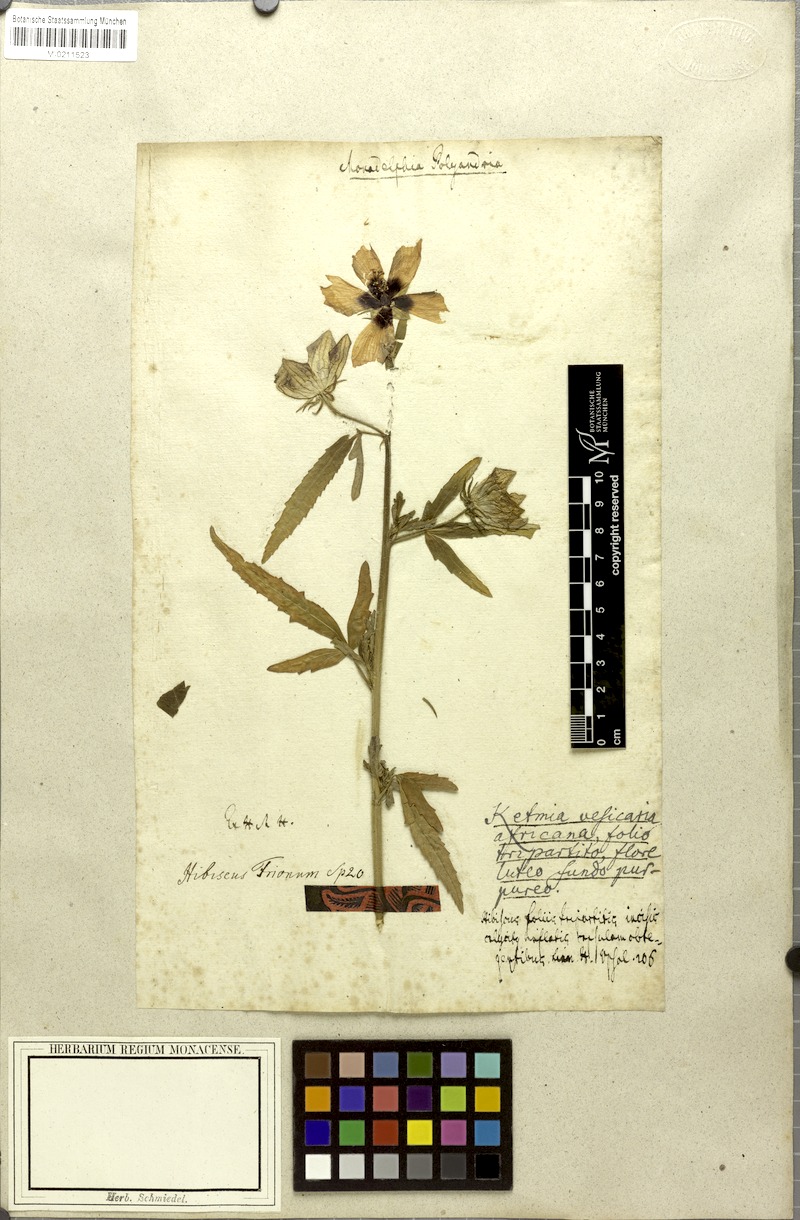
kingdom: Plantae
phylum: Tracheophyta
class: Magnoliopsida
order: Malvales
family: Malvaceae
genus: Hibiscus
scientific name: Hibiscus trionum
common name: Bladder ketmia
